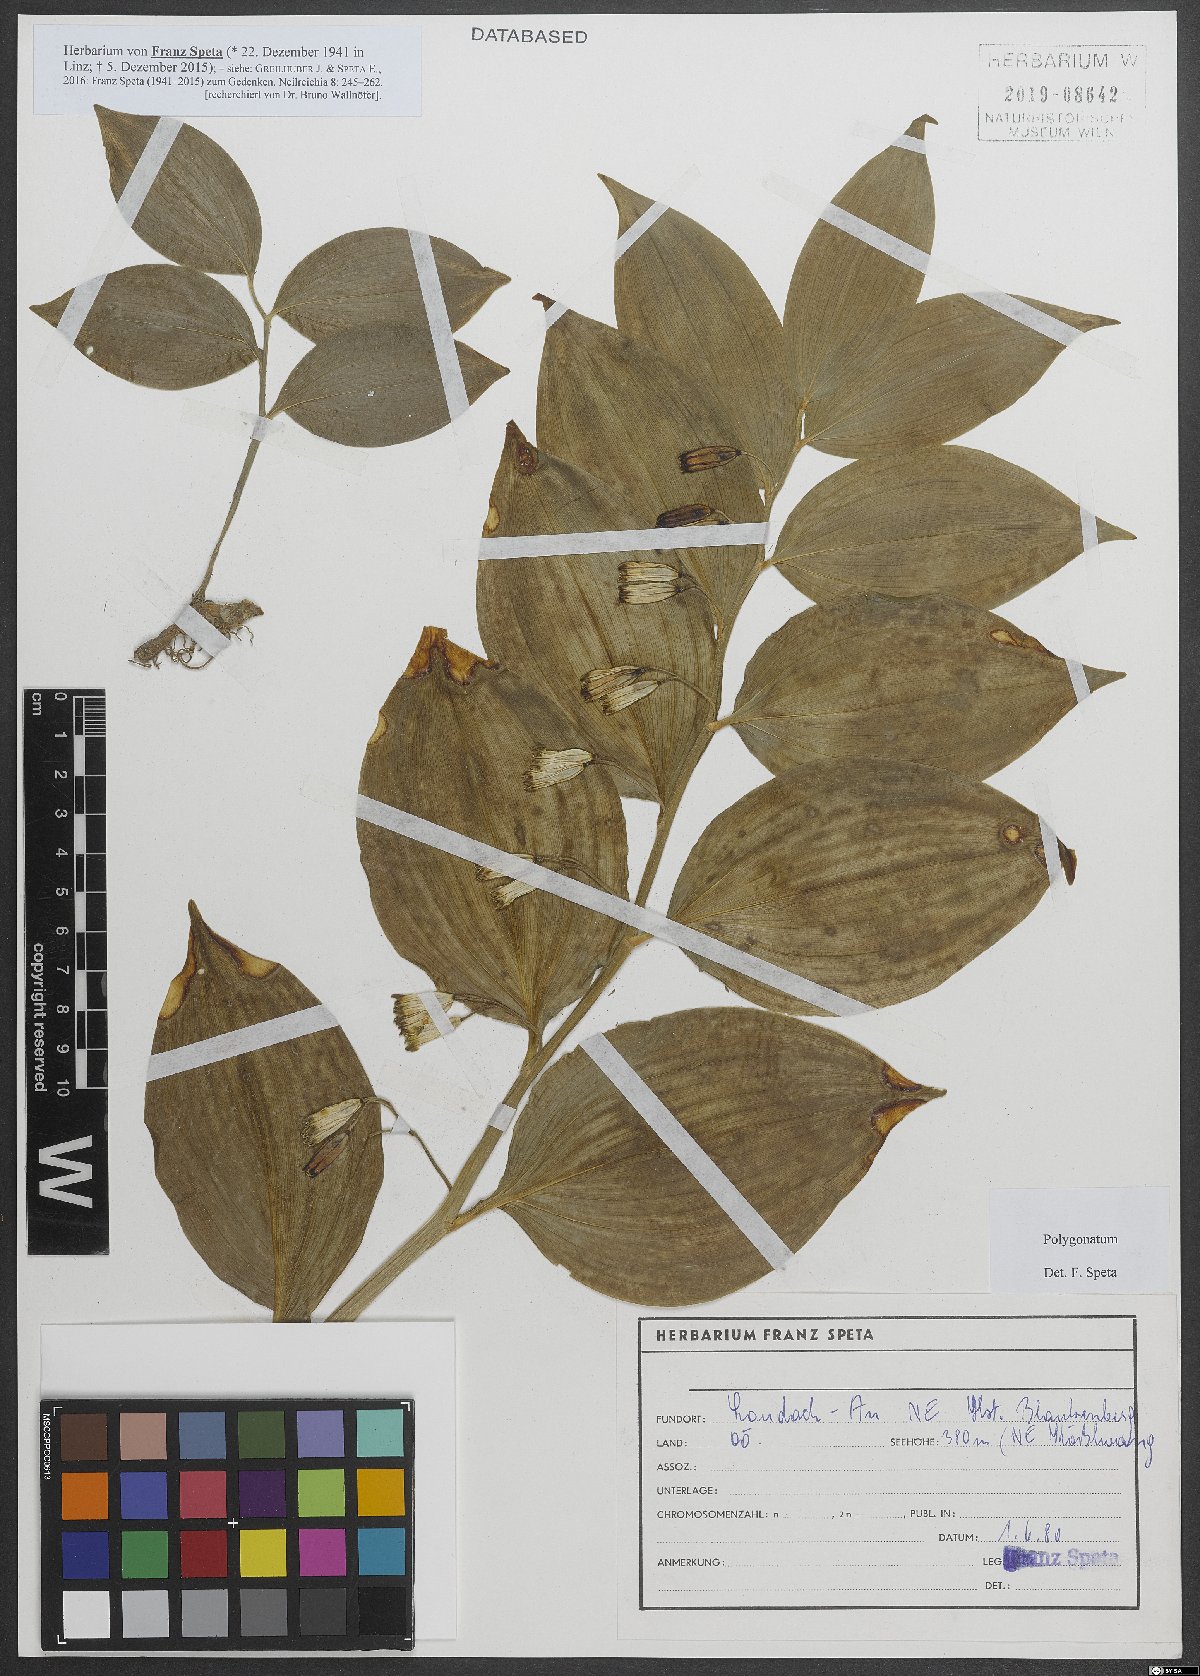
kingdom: Plantae
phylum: Tracheophyta
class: Liliopsida
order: Asparagales
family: Asparagaceae
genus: Polygonatum
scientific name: Polygonatum
